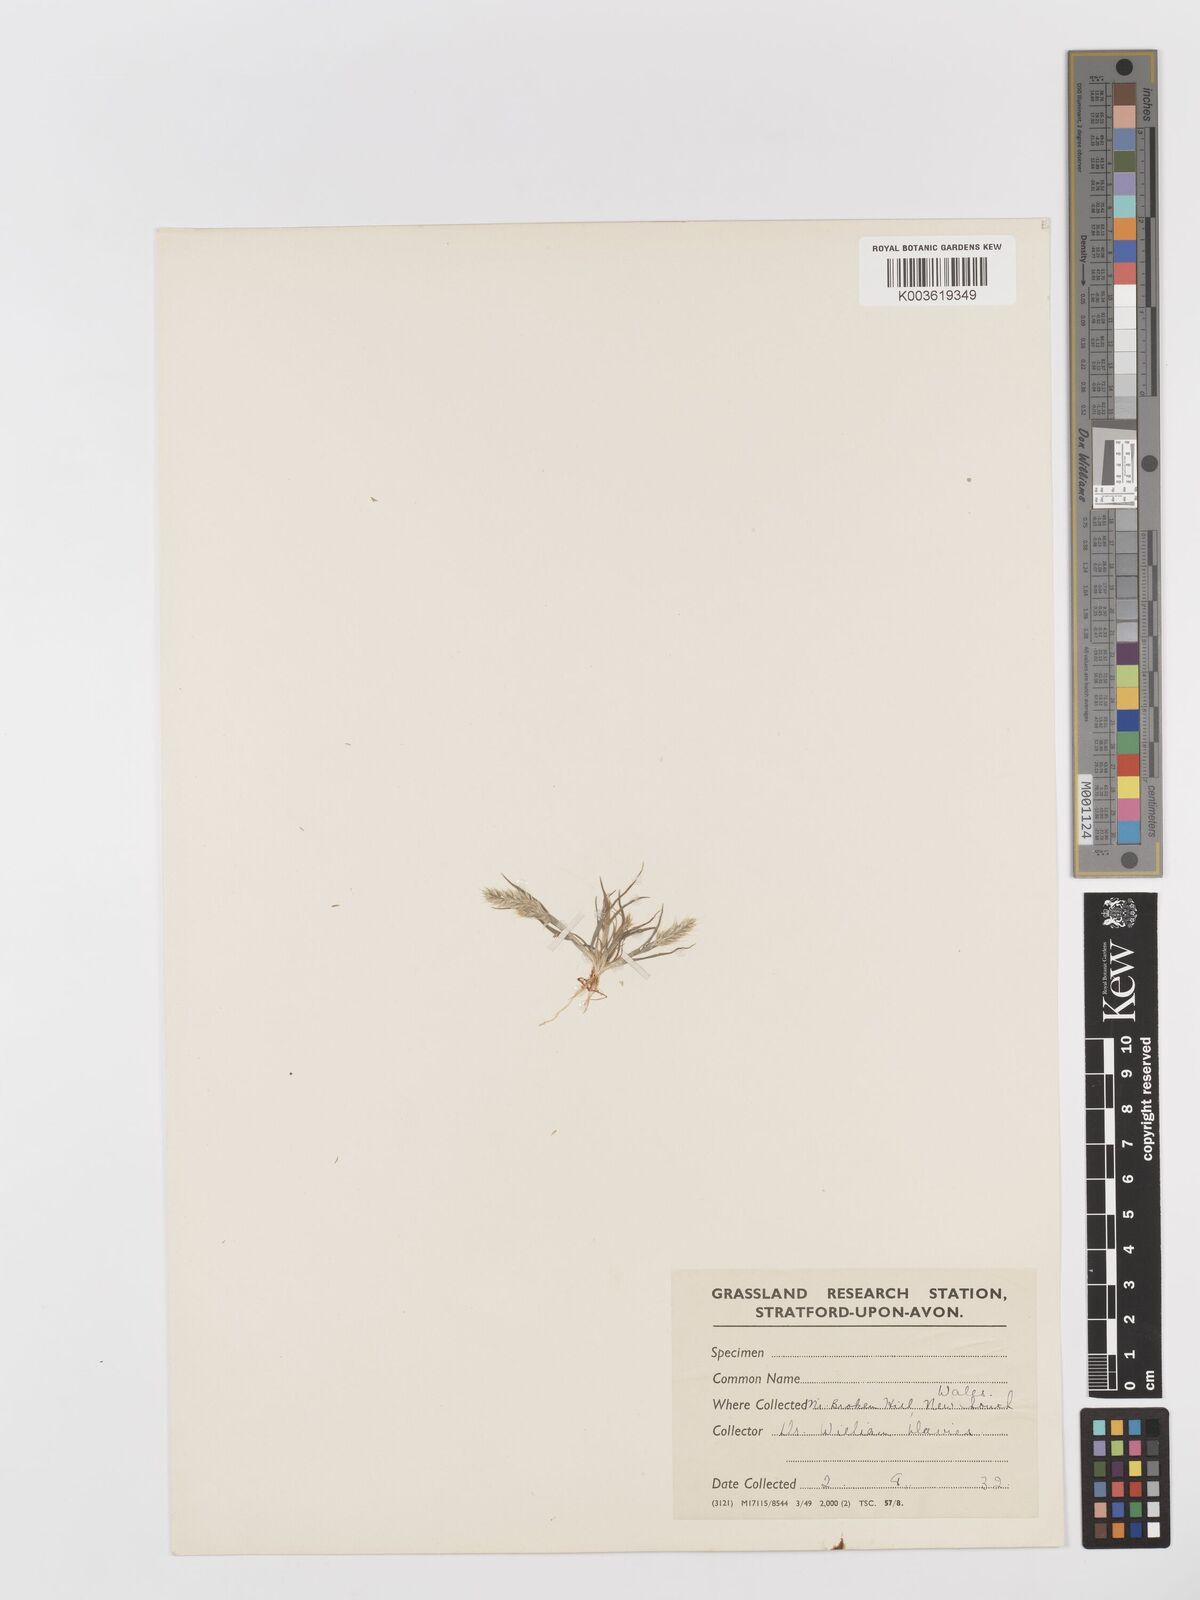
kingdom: Plantae
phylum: Tracheophyta
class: Liliopsida
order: Poales
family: Poaceae
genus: Rostraria
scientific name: Rostraria cristata
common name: Mediterranean hair-grass
